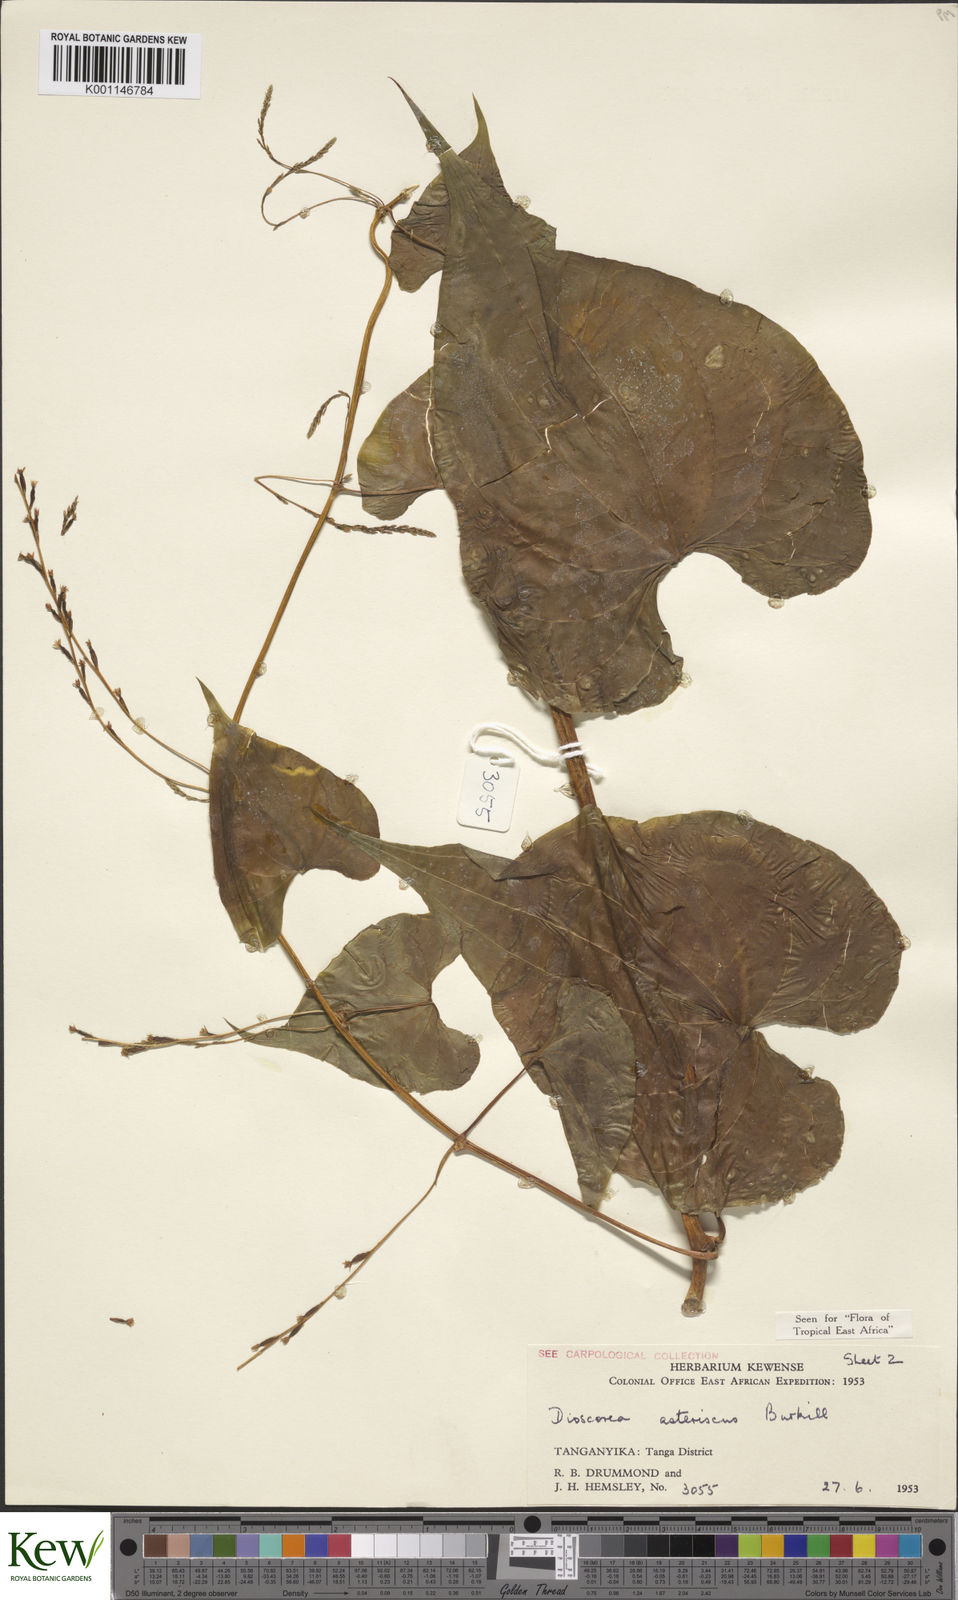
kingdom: Plantae
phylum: Tracheophyta
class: Liliopsida
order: Dioscoreales
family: Dioscoreaceae
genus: Dioscorea
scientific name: Dioscorea asteriscus
